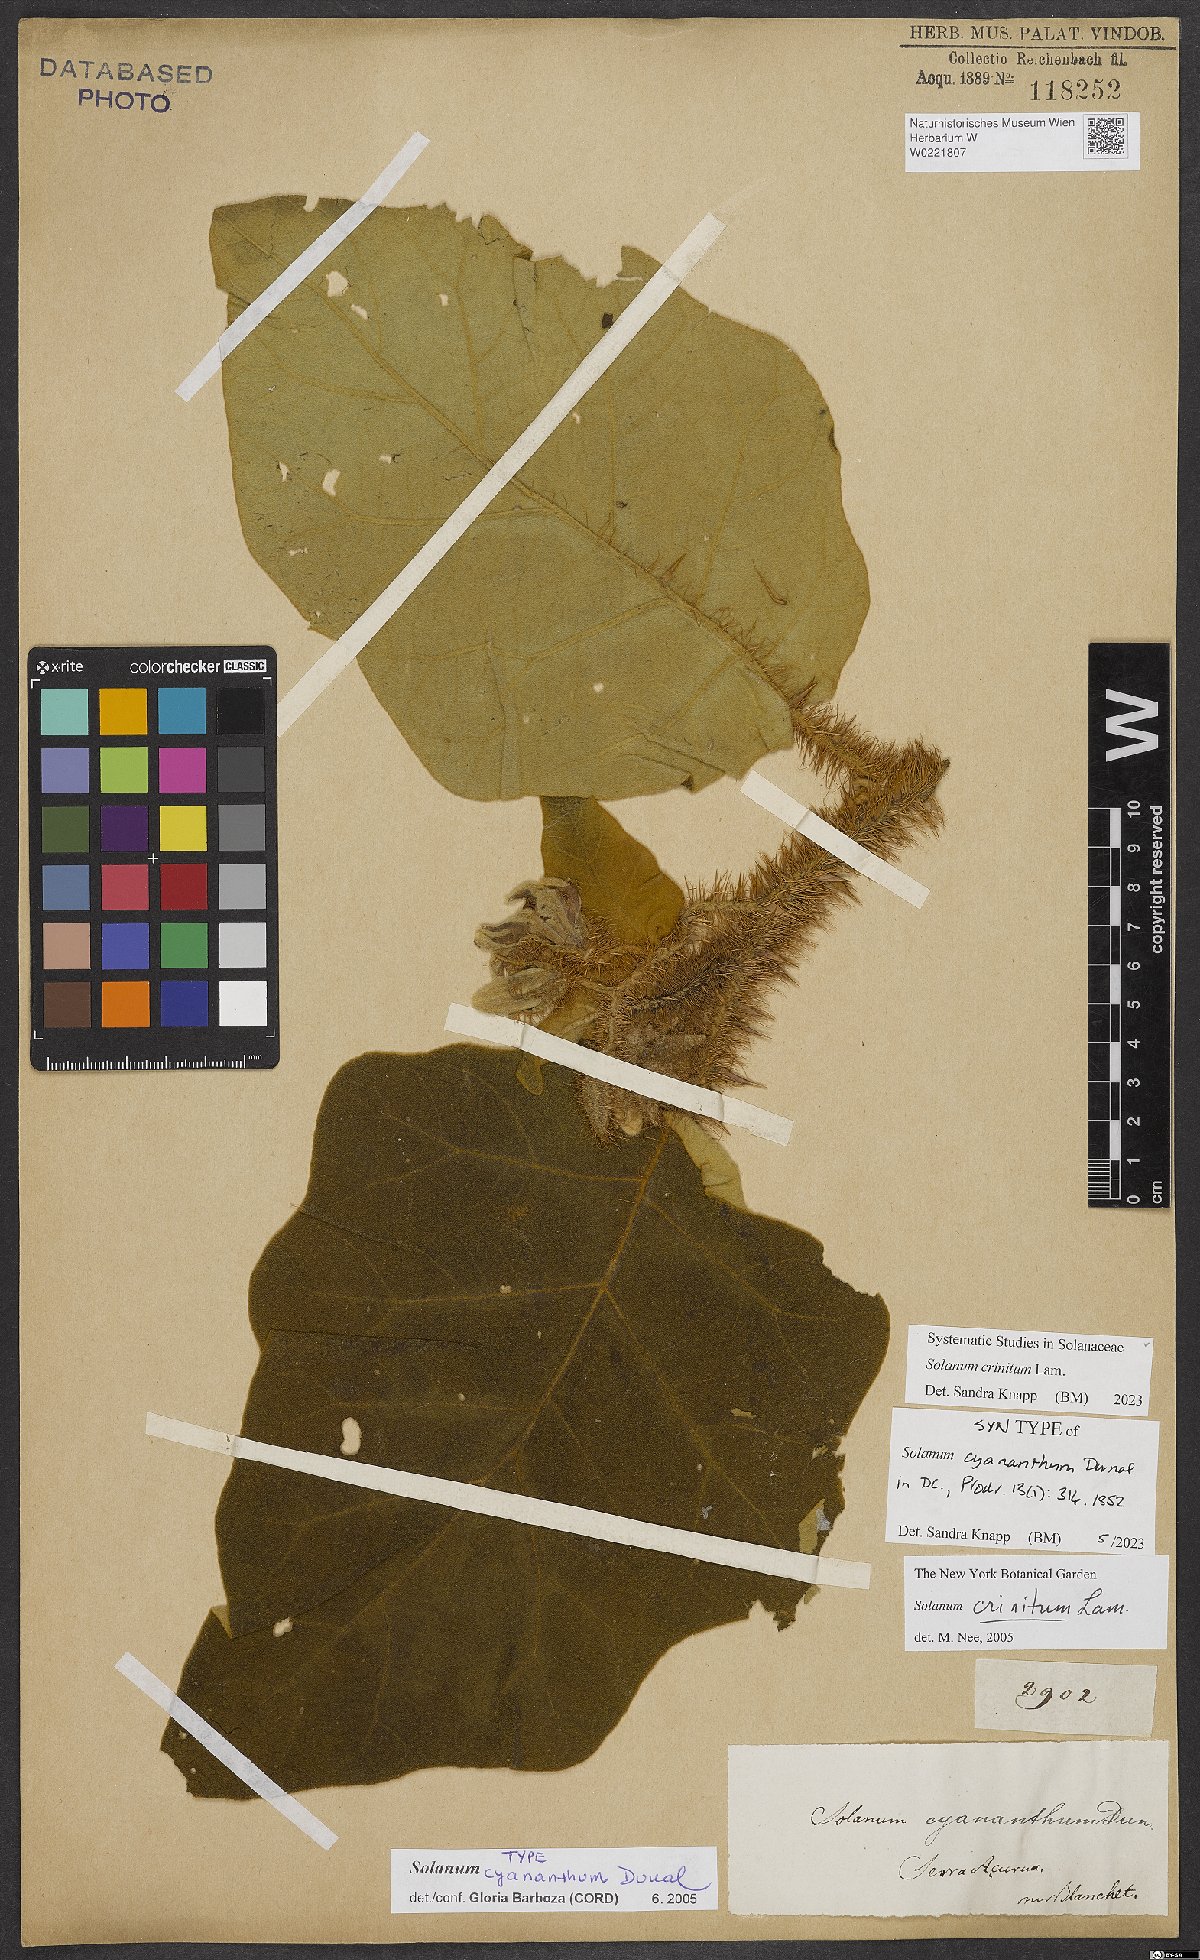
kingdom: Plantae
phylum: Tracheophyta
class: Magnoliopsida
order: Solanales
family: Solanaceae
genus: Solanum
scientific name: Solanum crinitum
